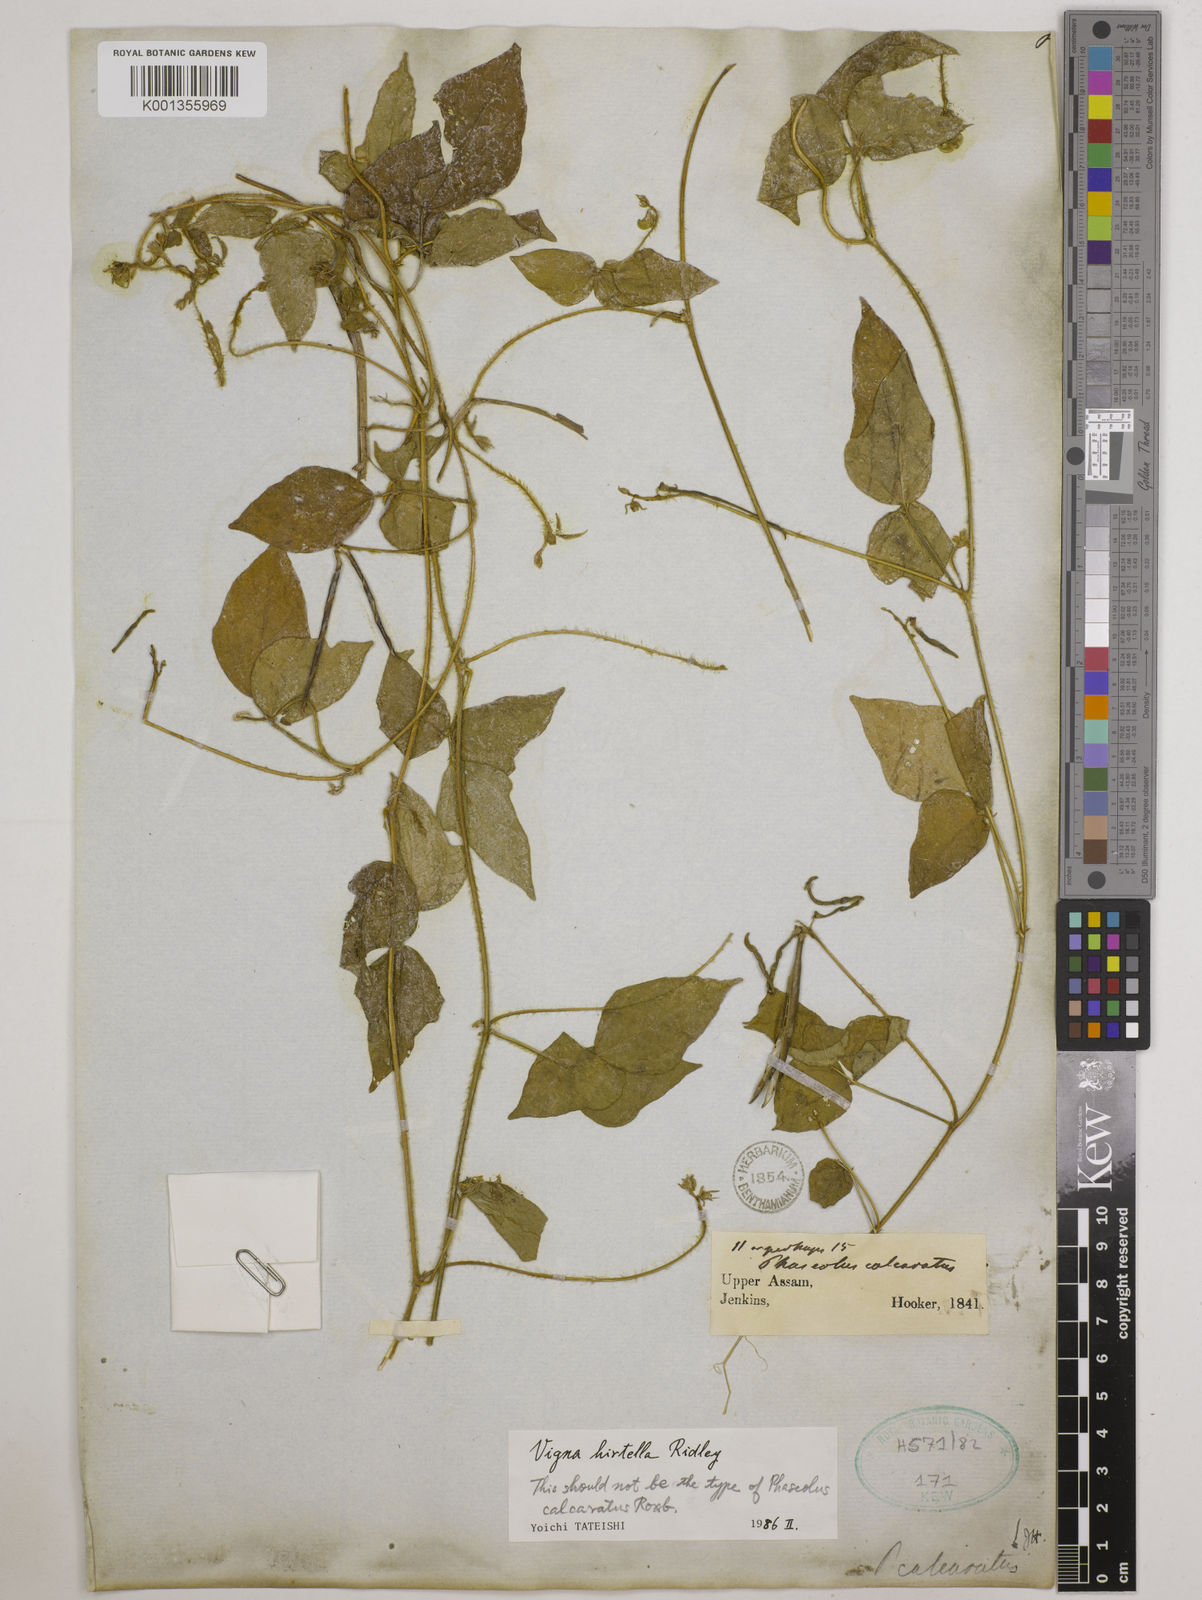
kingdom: Plantae
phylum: Tracheophyta
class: Magnoliopsida
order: Fabales
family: Fabaceae
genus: Vigna
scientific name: Vigna hirtella
